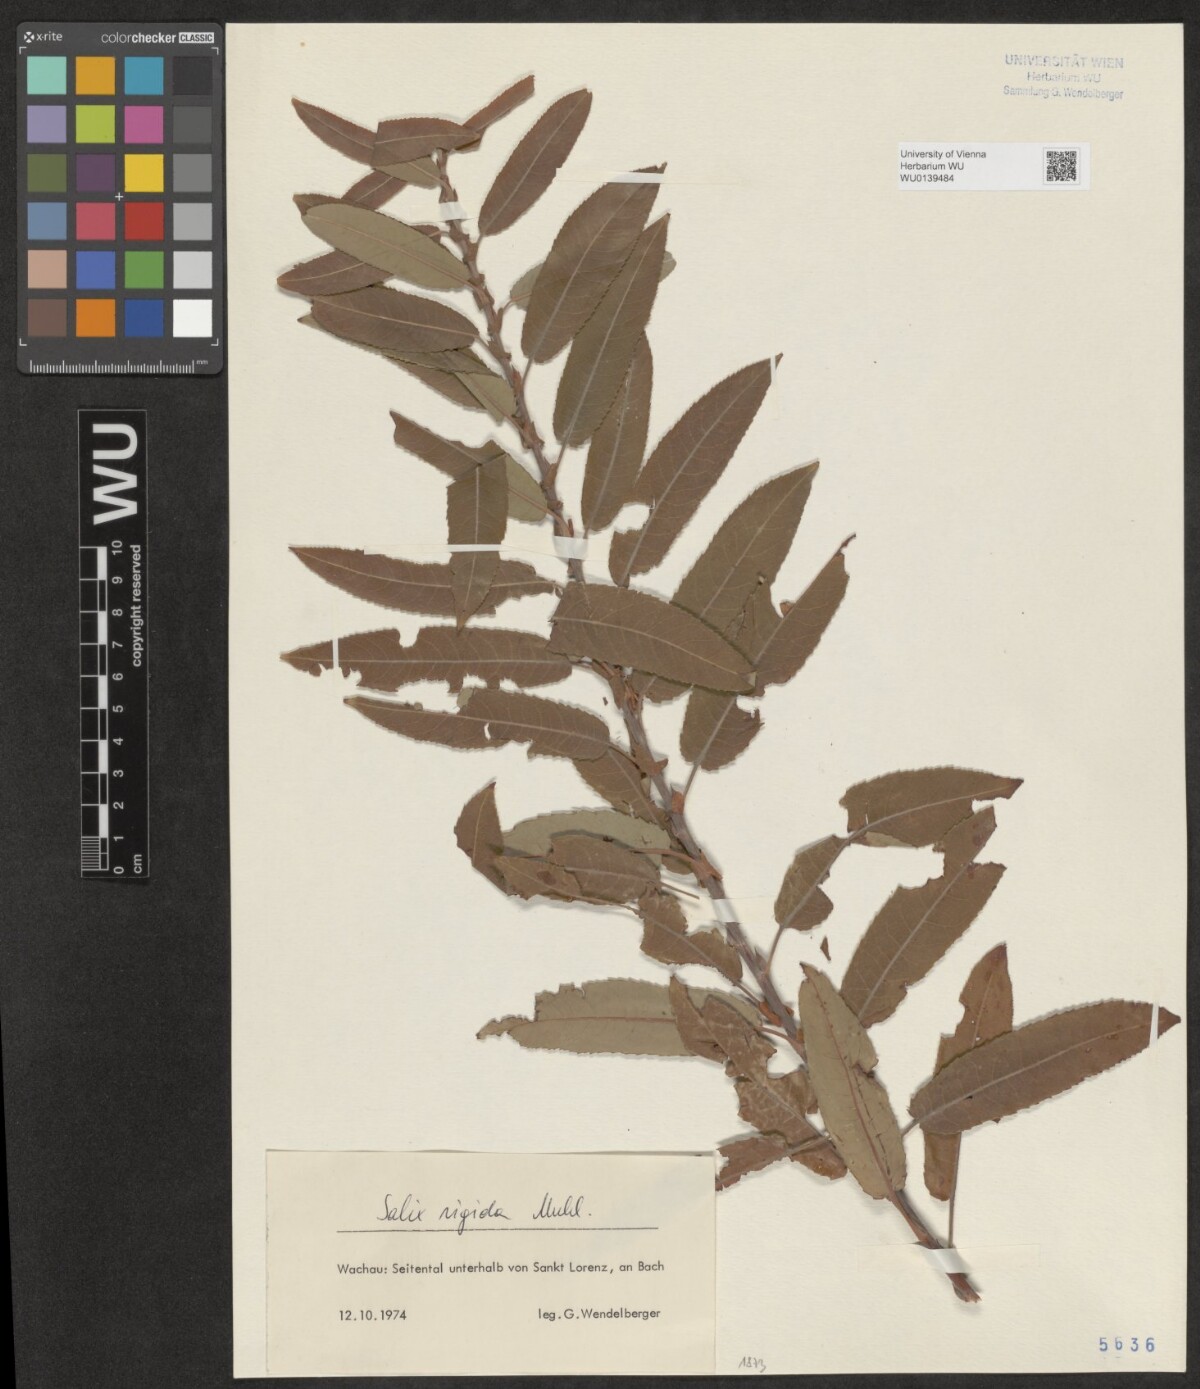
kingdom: Plantae
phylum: Tracheophyta
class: Magnoliopsida
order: Malpighiales
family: Salicaceae
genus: Salix
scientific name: Salix eriocephala
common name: Heart-leaved willow
